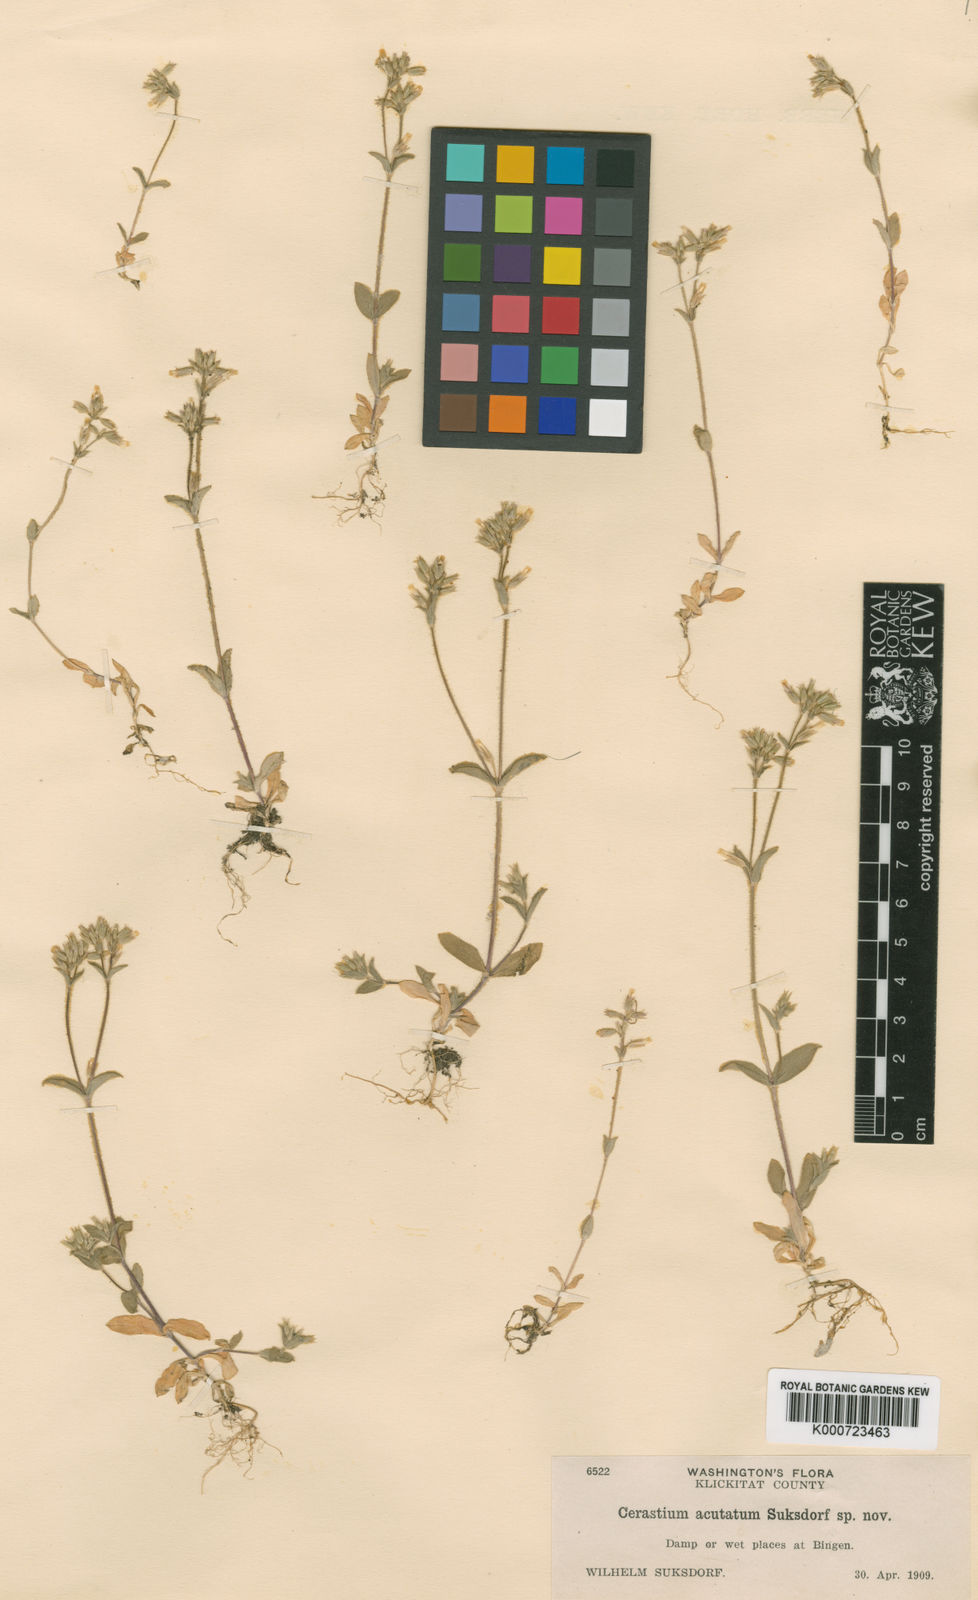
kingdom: Plantae
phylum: Tracheophyta
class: Magnoliopsida
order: Caryophyllales
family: Caryophyllaceae
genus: Cerastium
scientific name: Cerastium glomeratum
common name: Sticky chickweed
